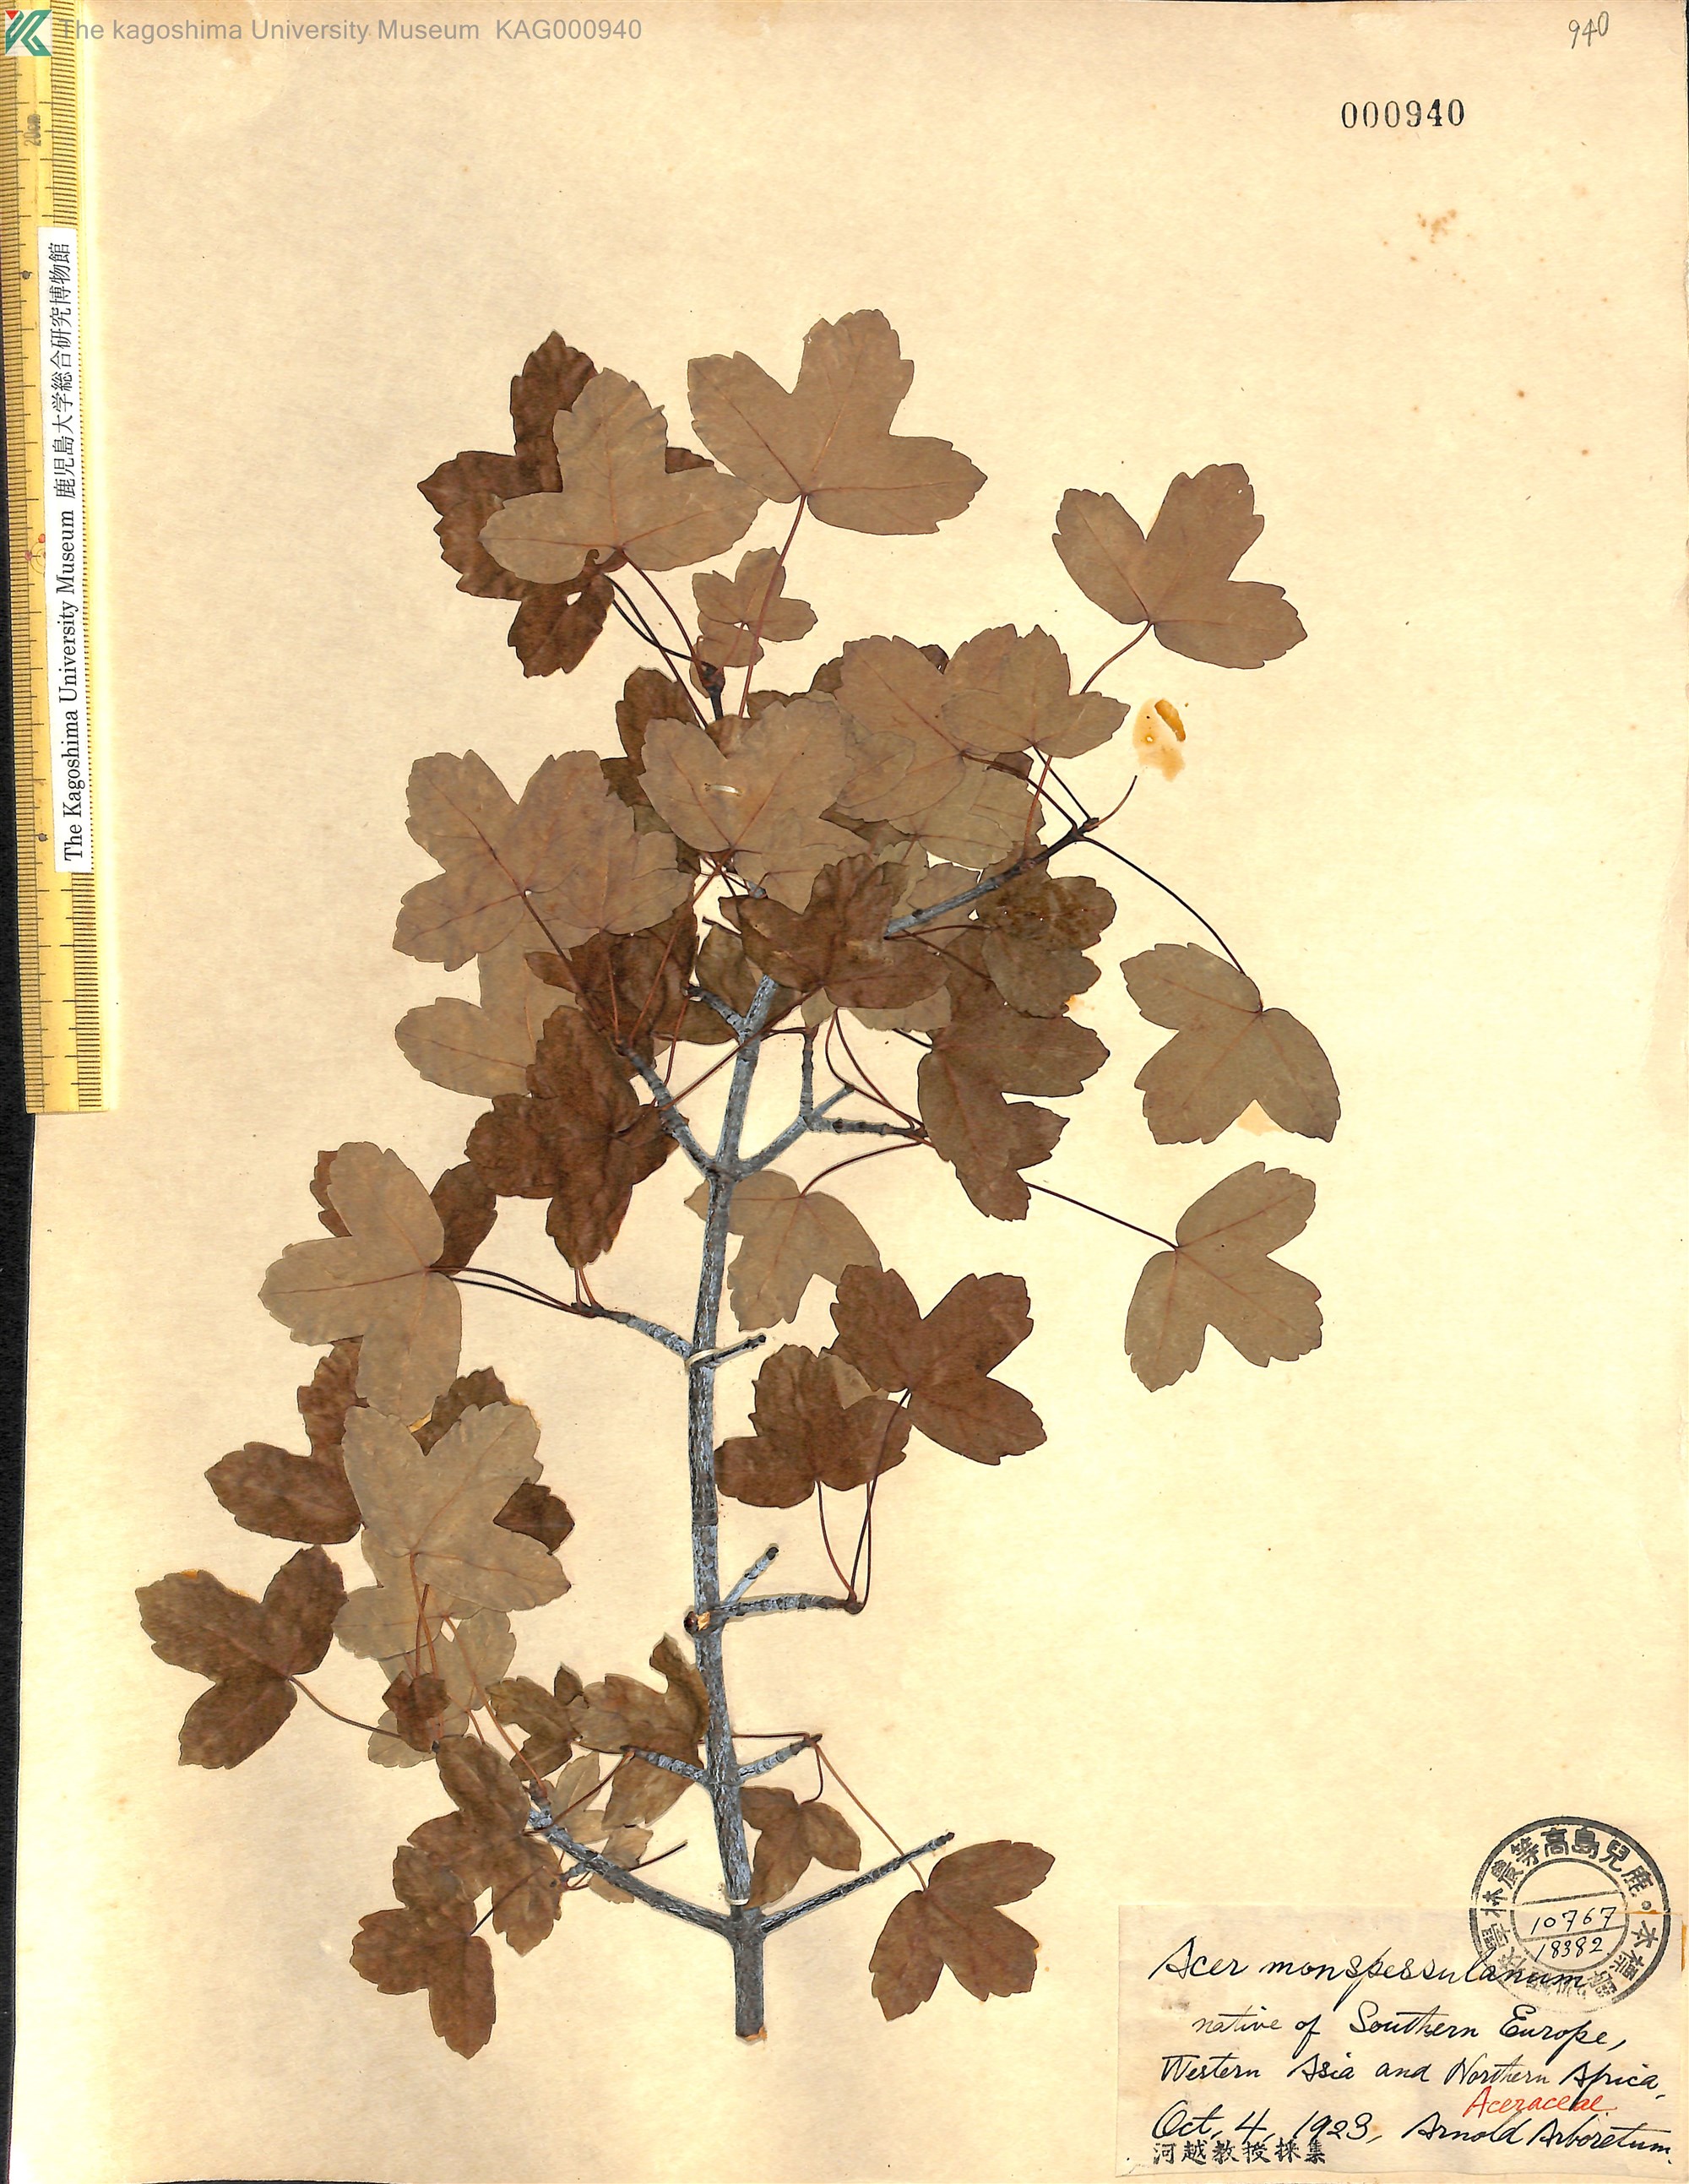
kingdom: Plantae
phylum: Tracheophyta
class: Magnoliopsida
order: Sapindales
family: Sapindaceae
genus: Acer
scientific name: Acer monspessulanum
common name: Montpellier maple
